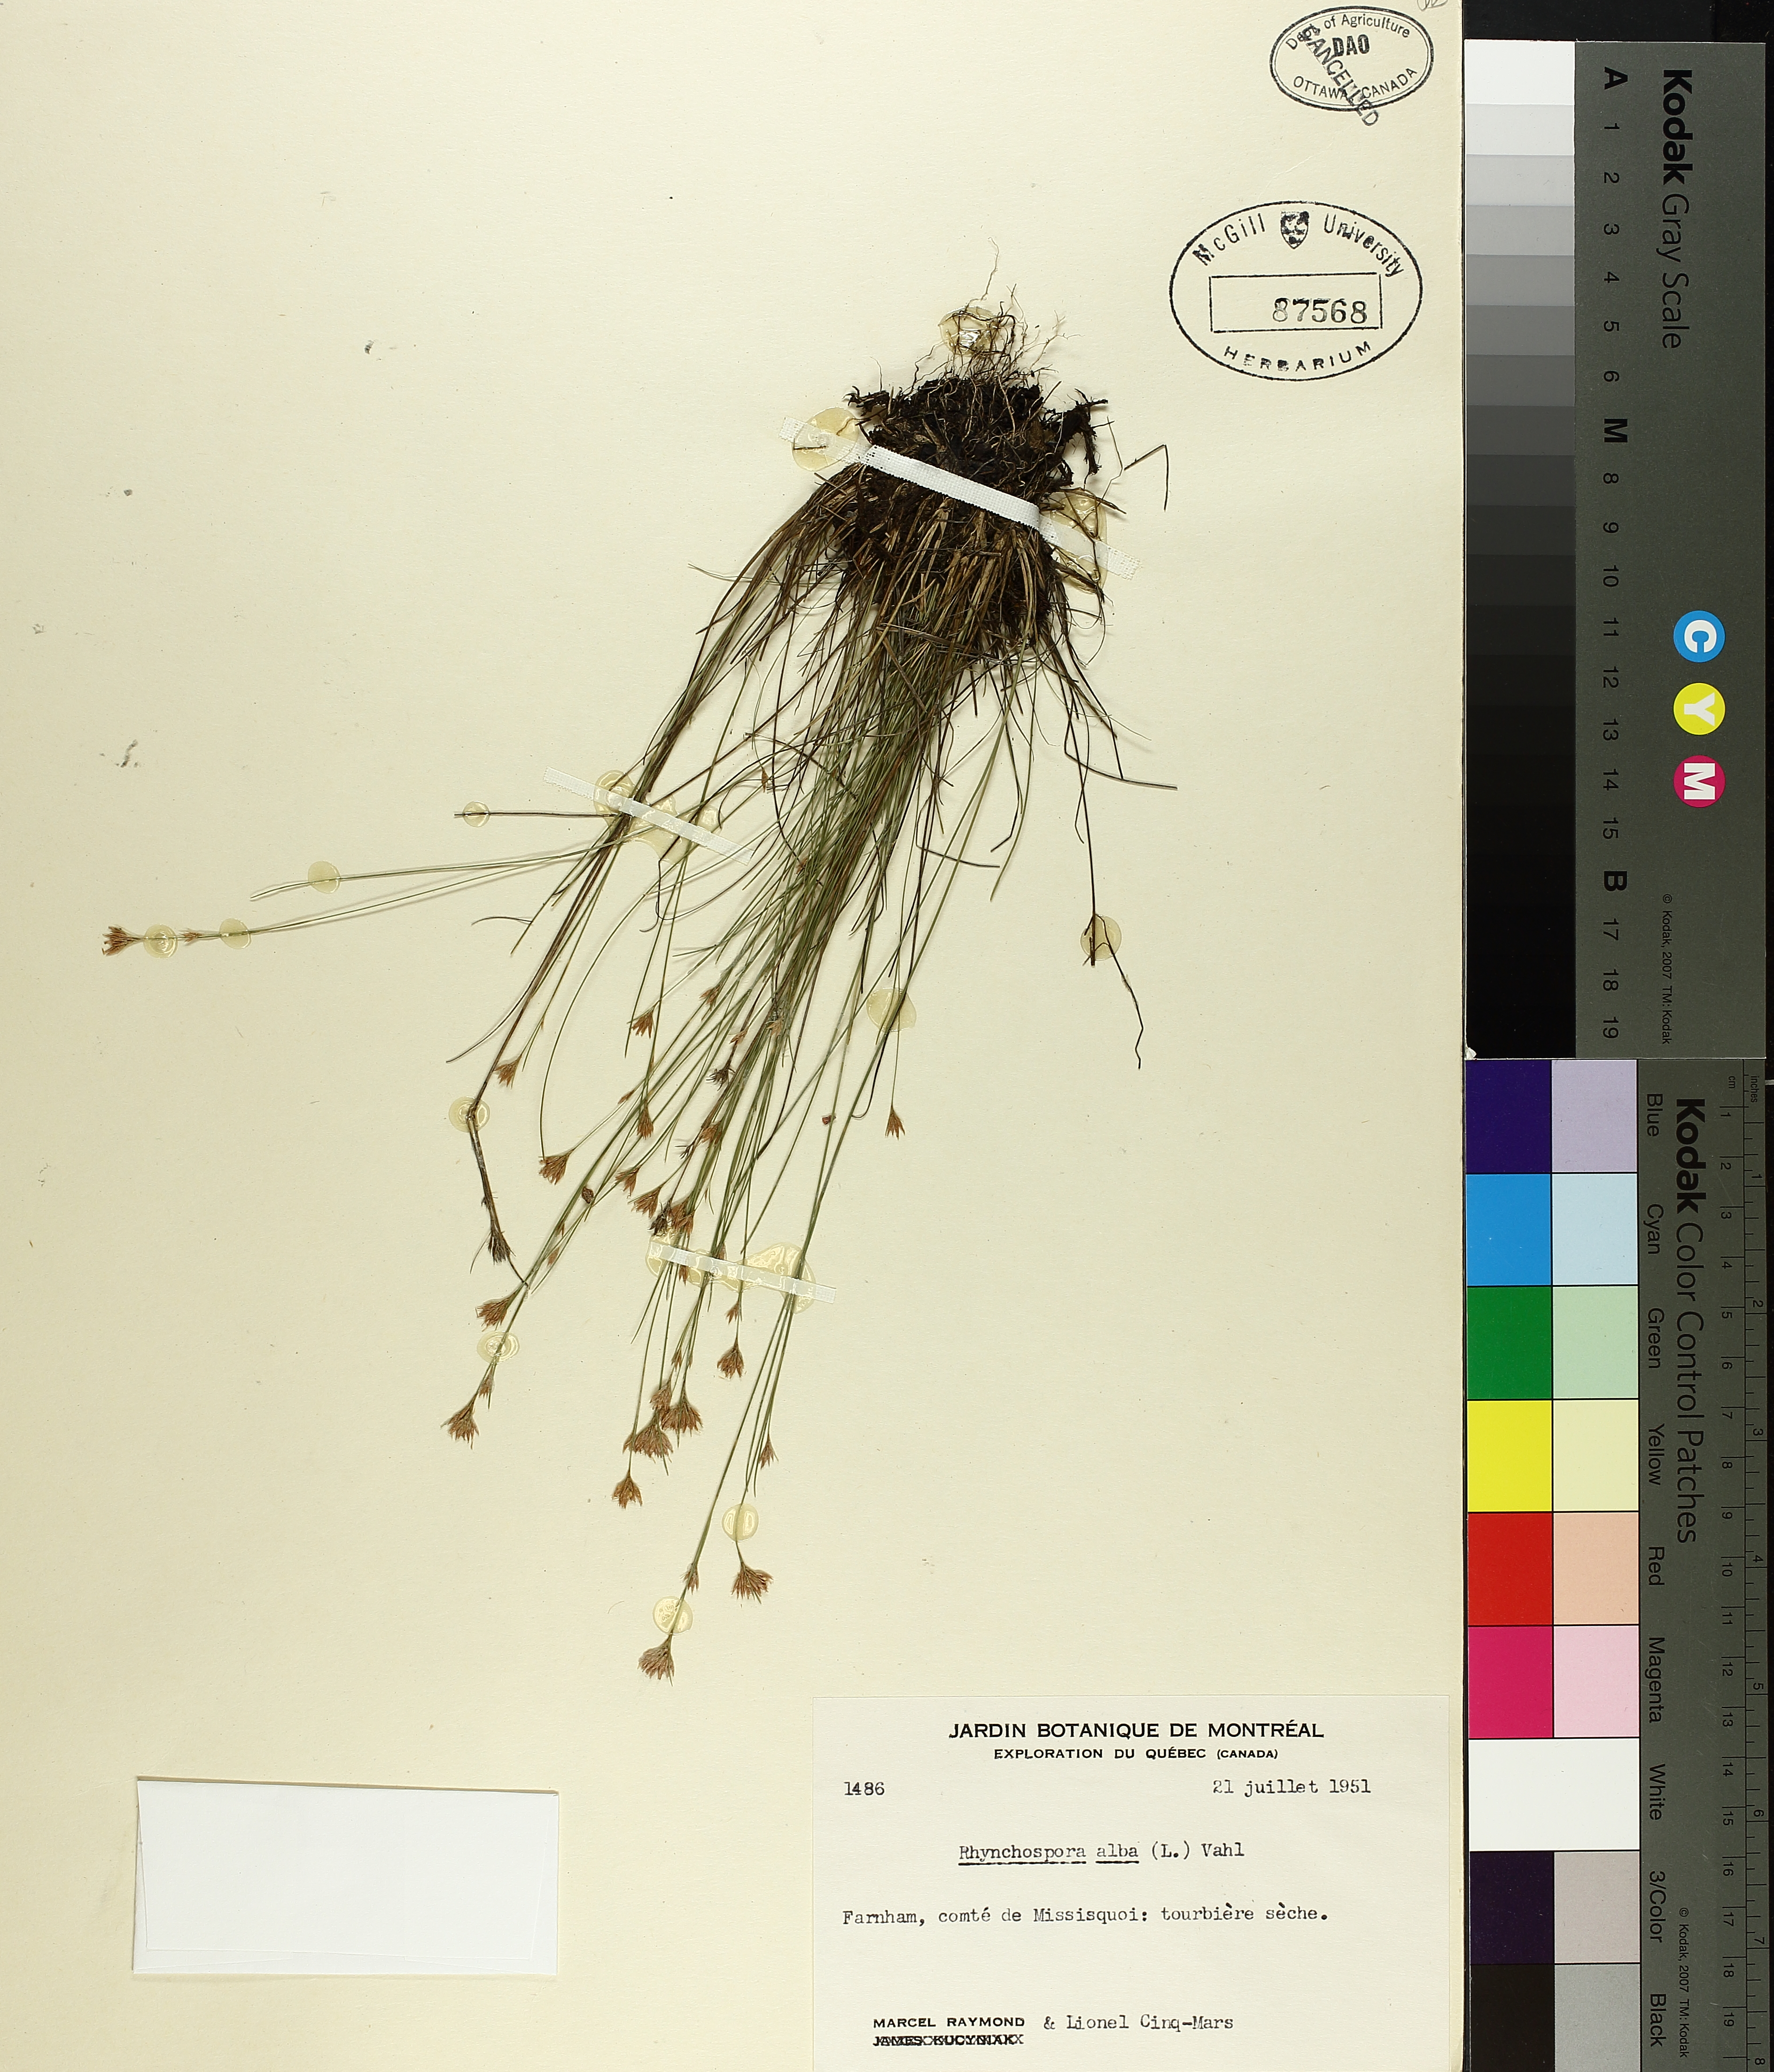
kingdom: Plantae
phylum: Tracheophyta
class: Liliopsida
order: Poales
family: Cyperaceae
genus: Rhynchospora
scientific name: Rhynchospora alba
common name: White beak-sedge
